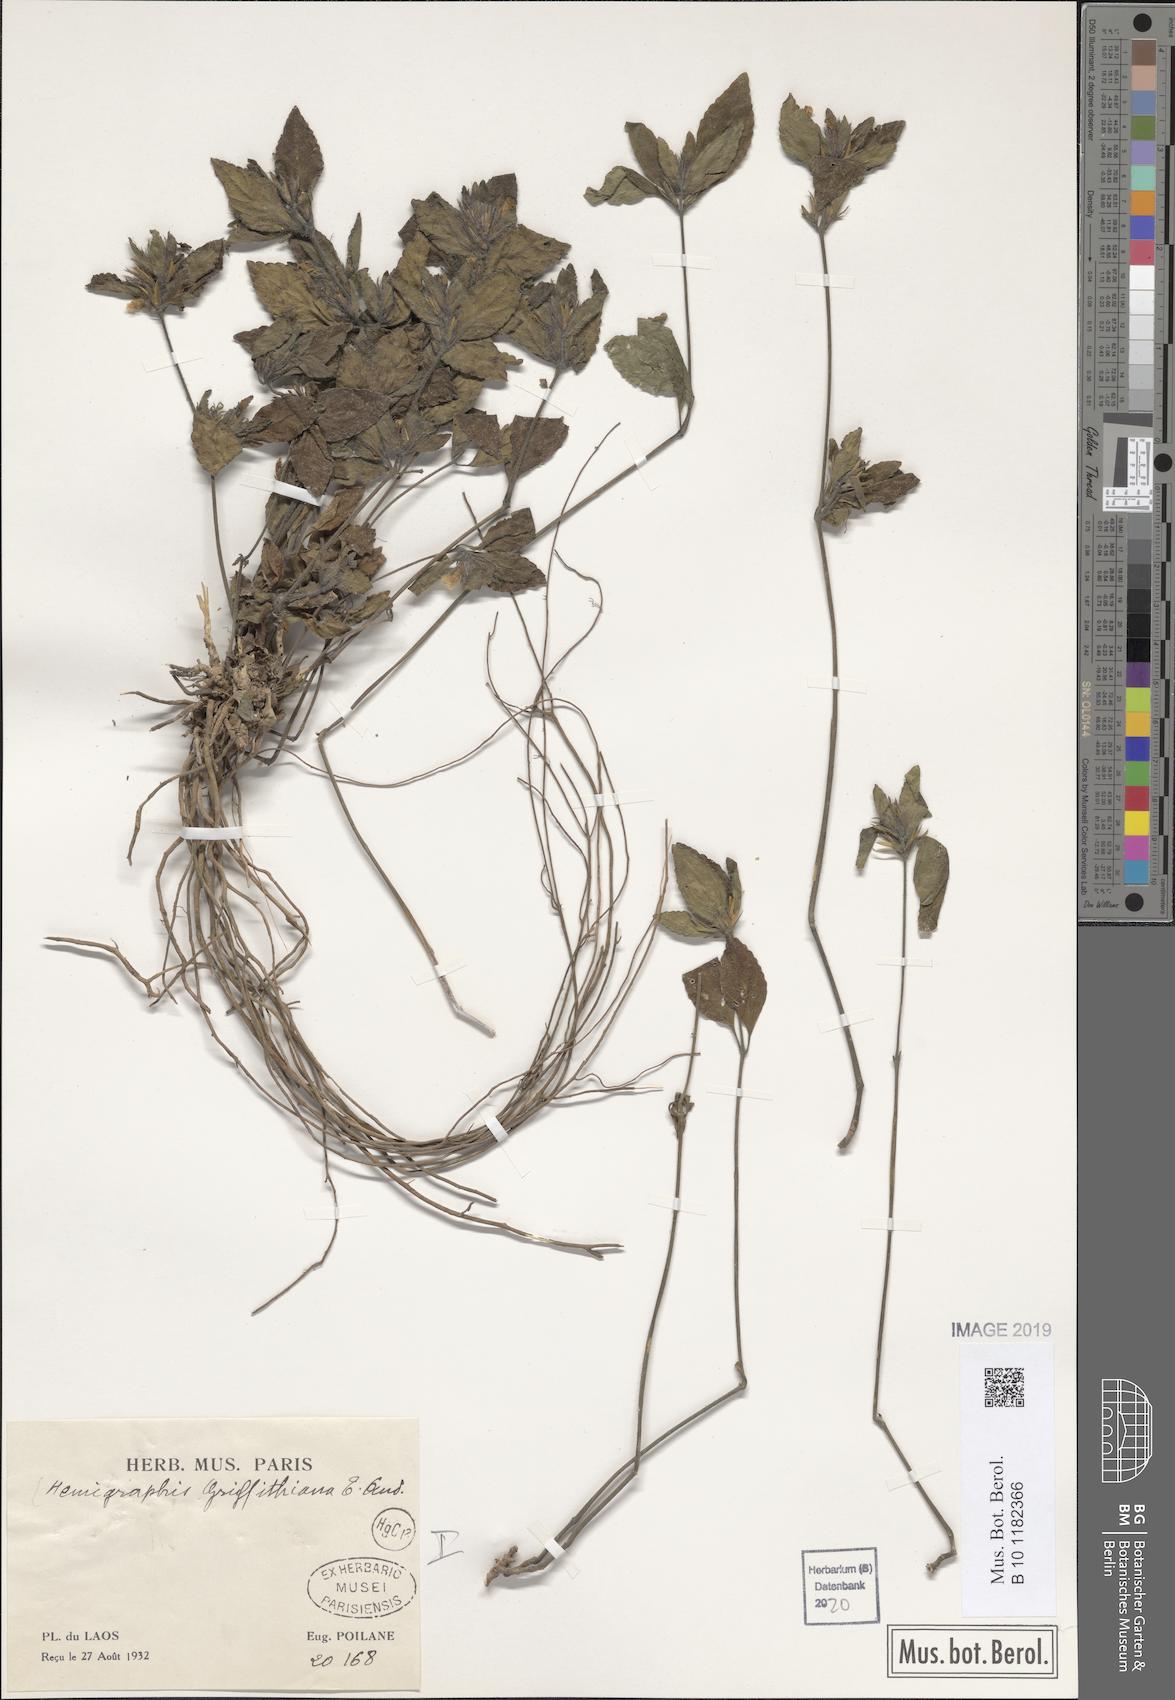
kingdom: Plantae
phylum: Tracheophyta
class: Magnoliopsida
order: Lamiales
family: Acanthaceae
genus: Strobilanthes
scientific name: Strobilanthes brunelloides
